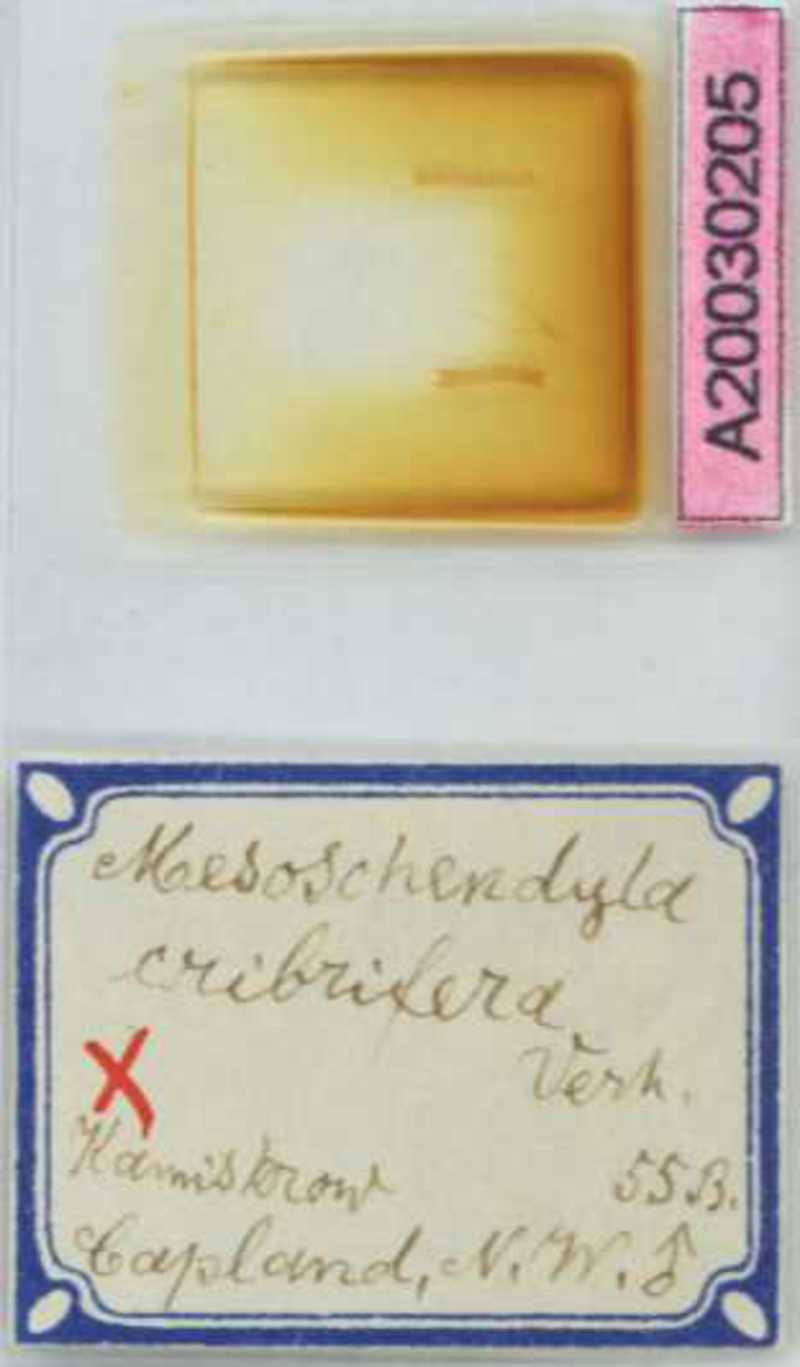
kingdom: Animalia
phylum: Arthropoda
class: Chilopoda
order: Geophilomorpha
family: Schendylidae
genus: Mesoschendyla
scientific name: Mesoschendyla cribrifera
